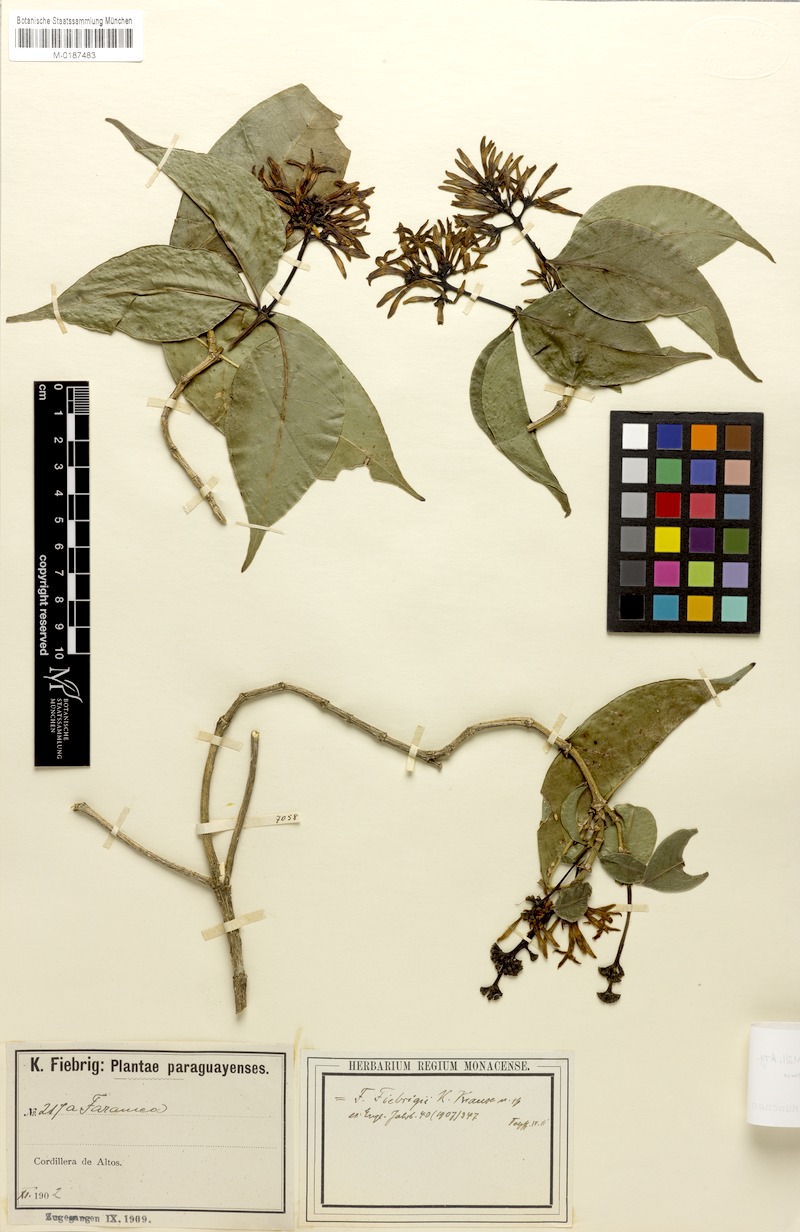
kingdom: Plantae
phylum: Tracheophyta
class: Magnoliopsida
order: Gentianales
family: Rubiaceae
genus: Faramea
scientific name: Faramea porophylla
